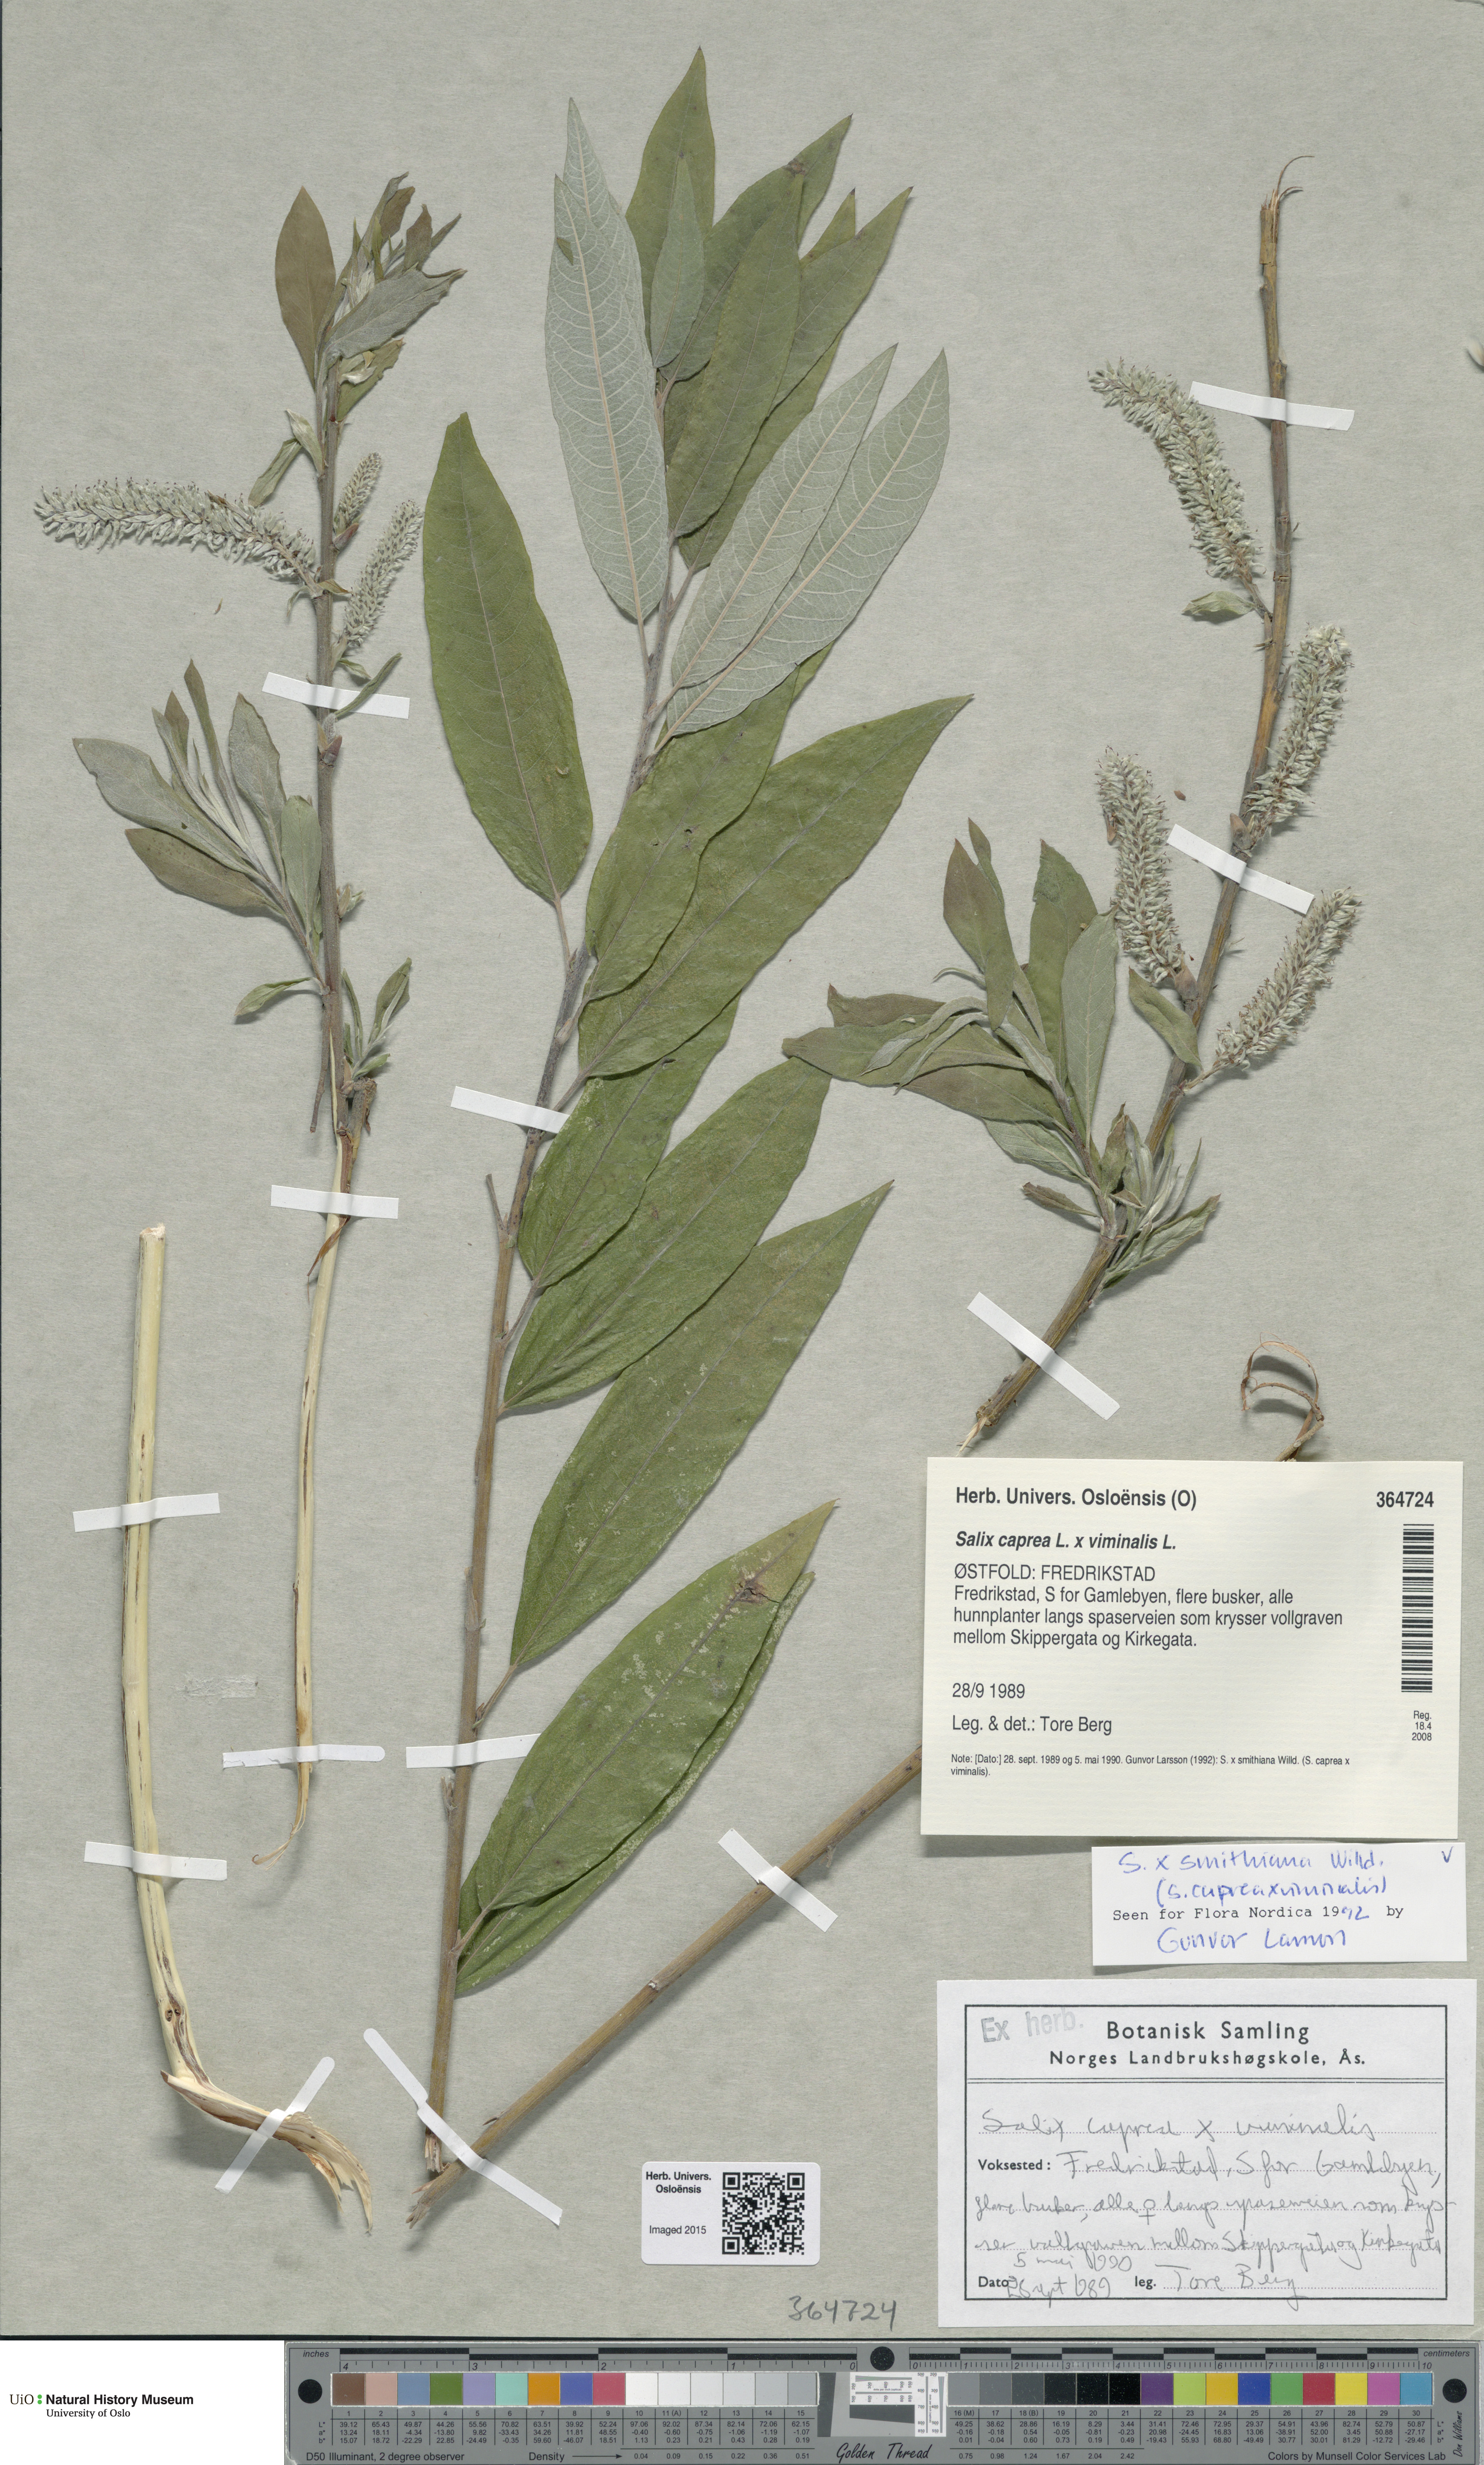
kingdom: Plantae
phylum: Tracheophyta
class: Magnoliopsida
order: Malpighiales
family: Salicaceae
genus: Salix
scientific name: Salix smithiana
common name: Silky-leaved osier
